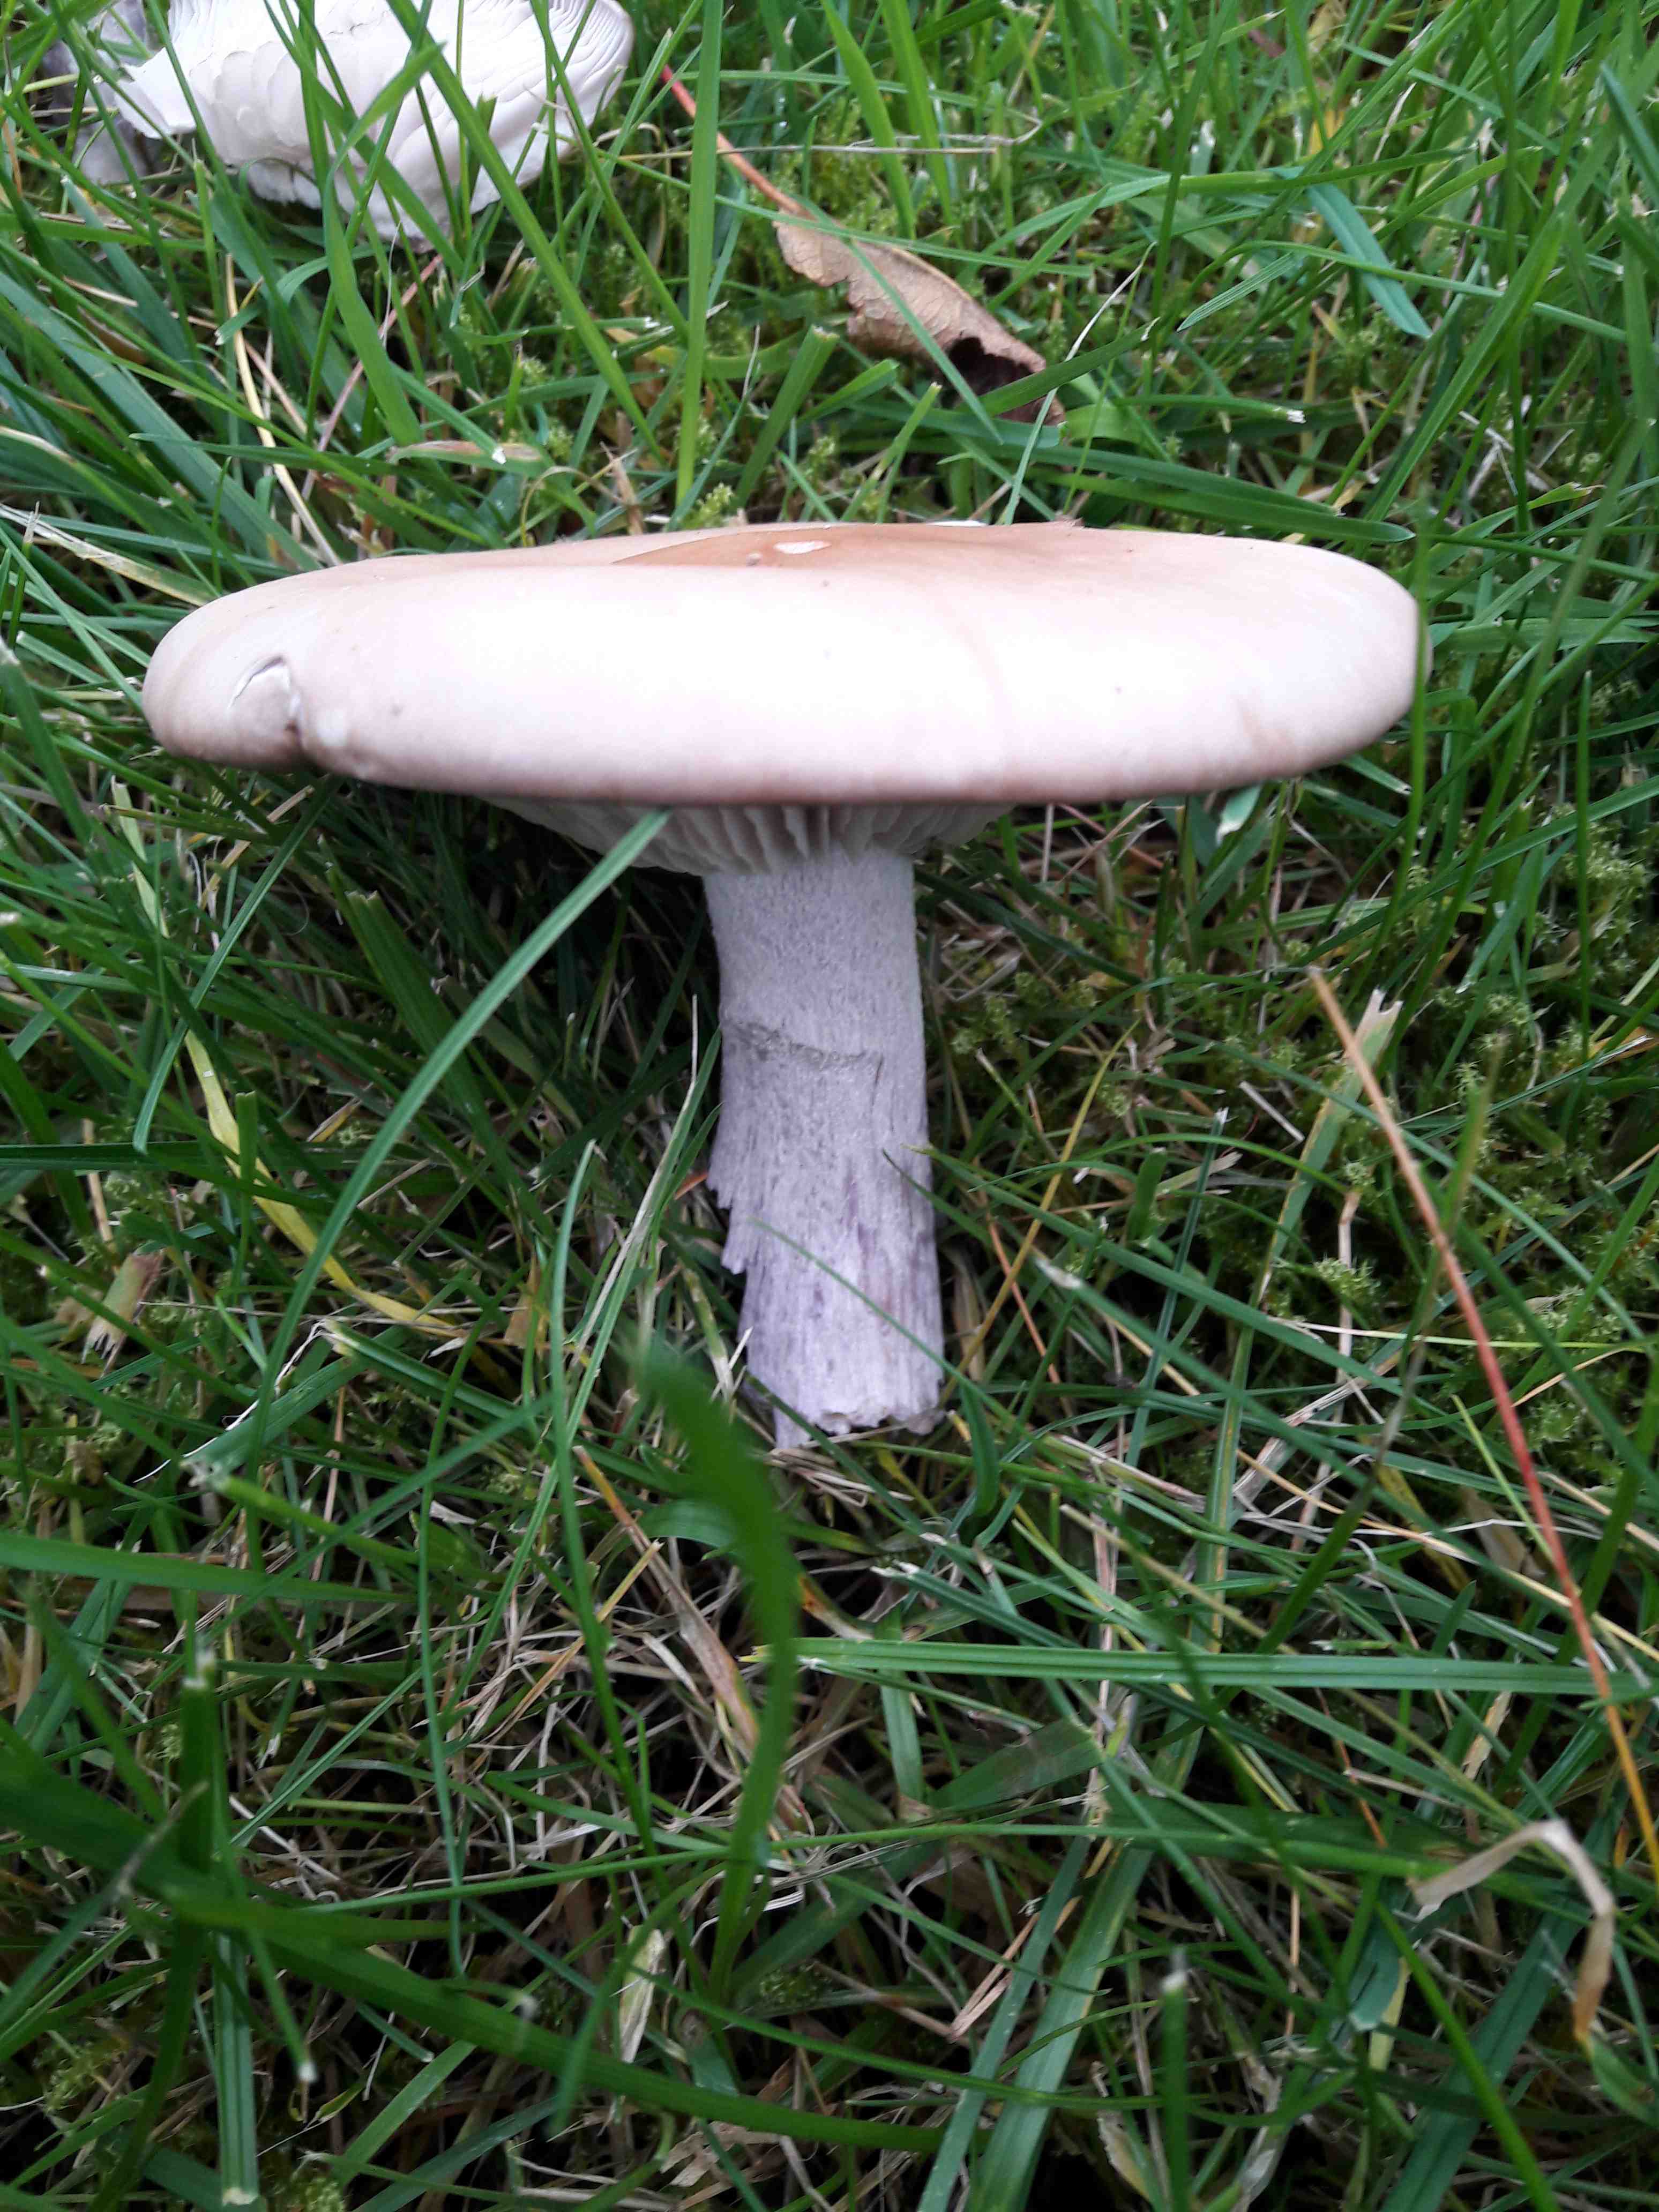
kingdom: Fungi
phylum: Basidiomycota
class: Agaricomycetes
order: Agaricales
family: Tricholomataceae
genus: Lepista
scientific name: Lepista nuda
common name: violet hekseringshat
